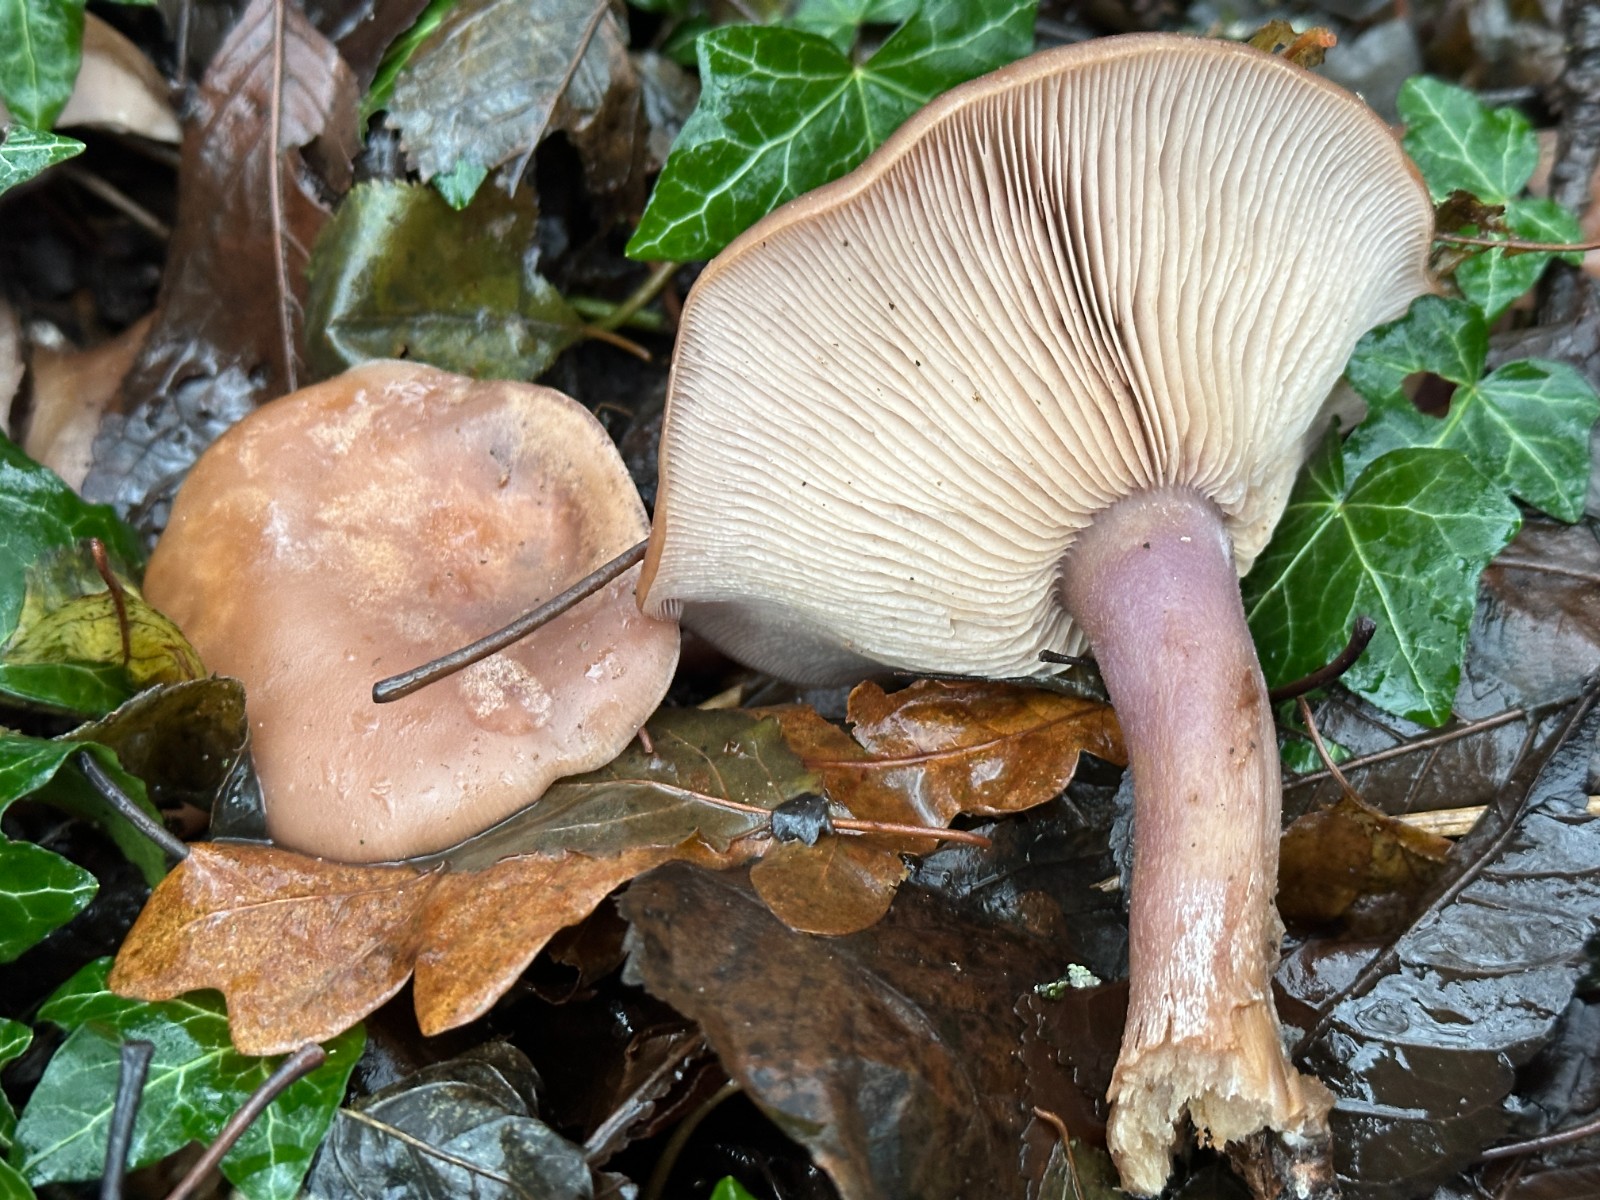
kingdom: Fungi
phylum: Basidiomycota
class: Agaricomycetes
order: Agaricales
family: Tricholomataceae
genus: Lepista
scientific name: Lepista personata
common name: bleg hekseringshat
